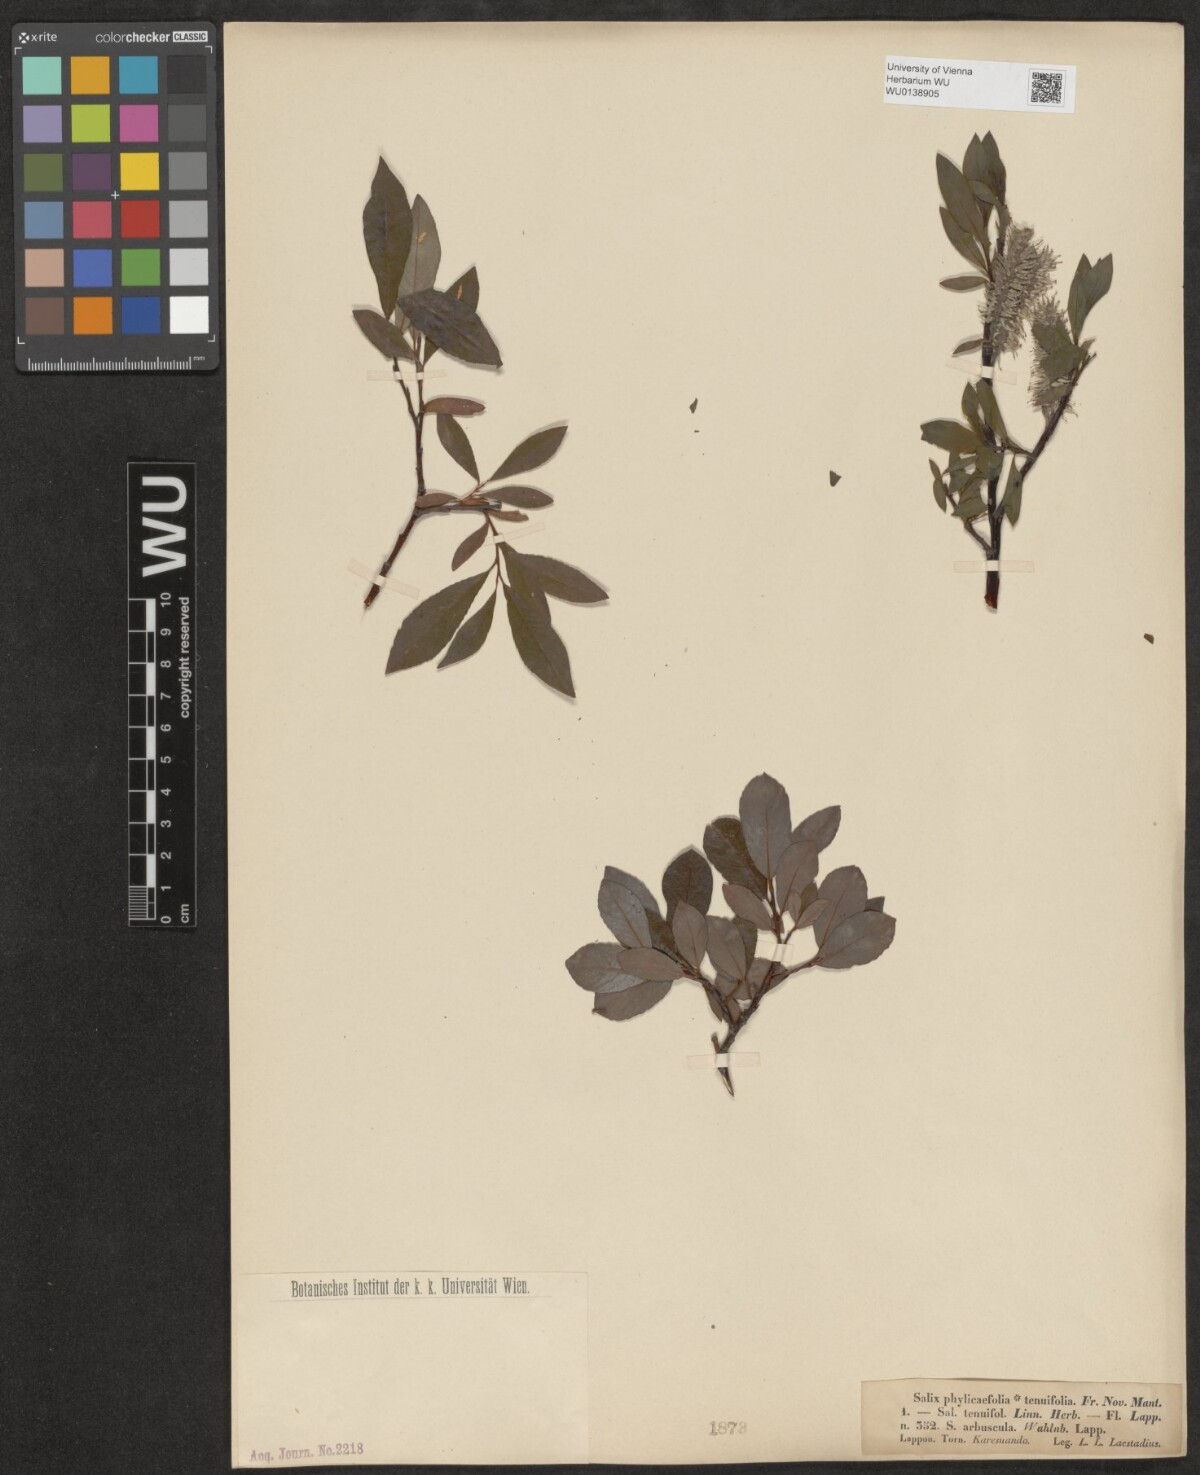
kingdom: Plantae
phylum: Tracheophyta
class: Magnoliopsida
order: Malpighiales
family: Salicaceae
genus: Salix
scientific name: Salix phylicifolia
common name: Tea-leaved willow
